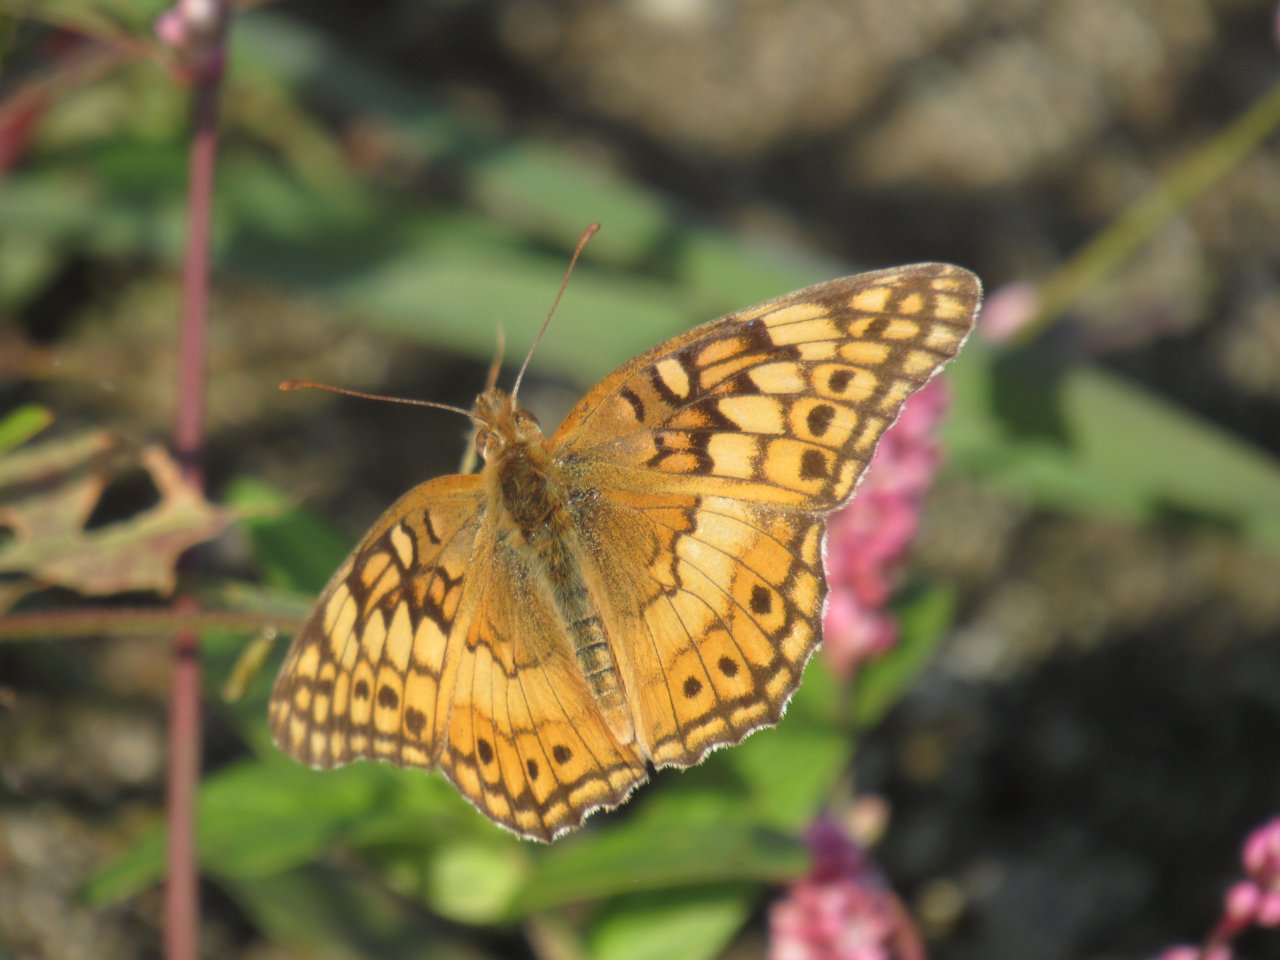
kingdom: Animalia
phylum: Arthropoda
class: Insecta
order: Lepidoptera
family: Nymphalidae
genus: Euptoieta
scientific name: Euptoieta claudia
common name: Variegated Fritillary
